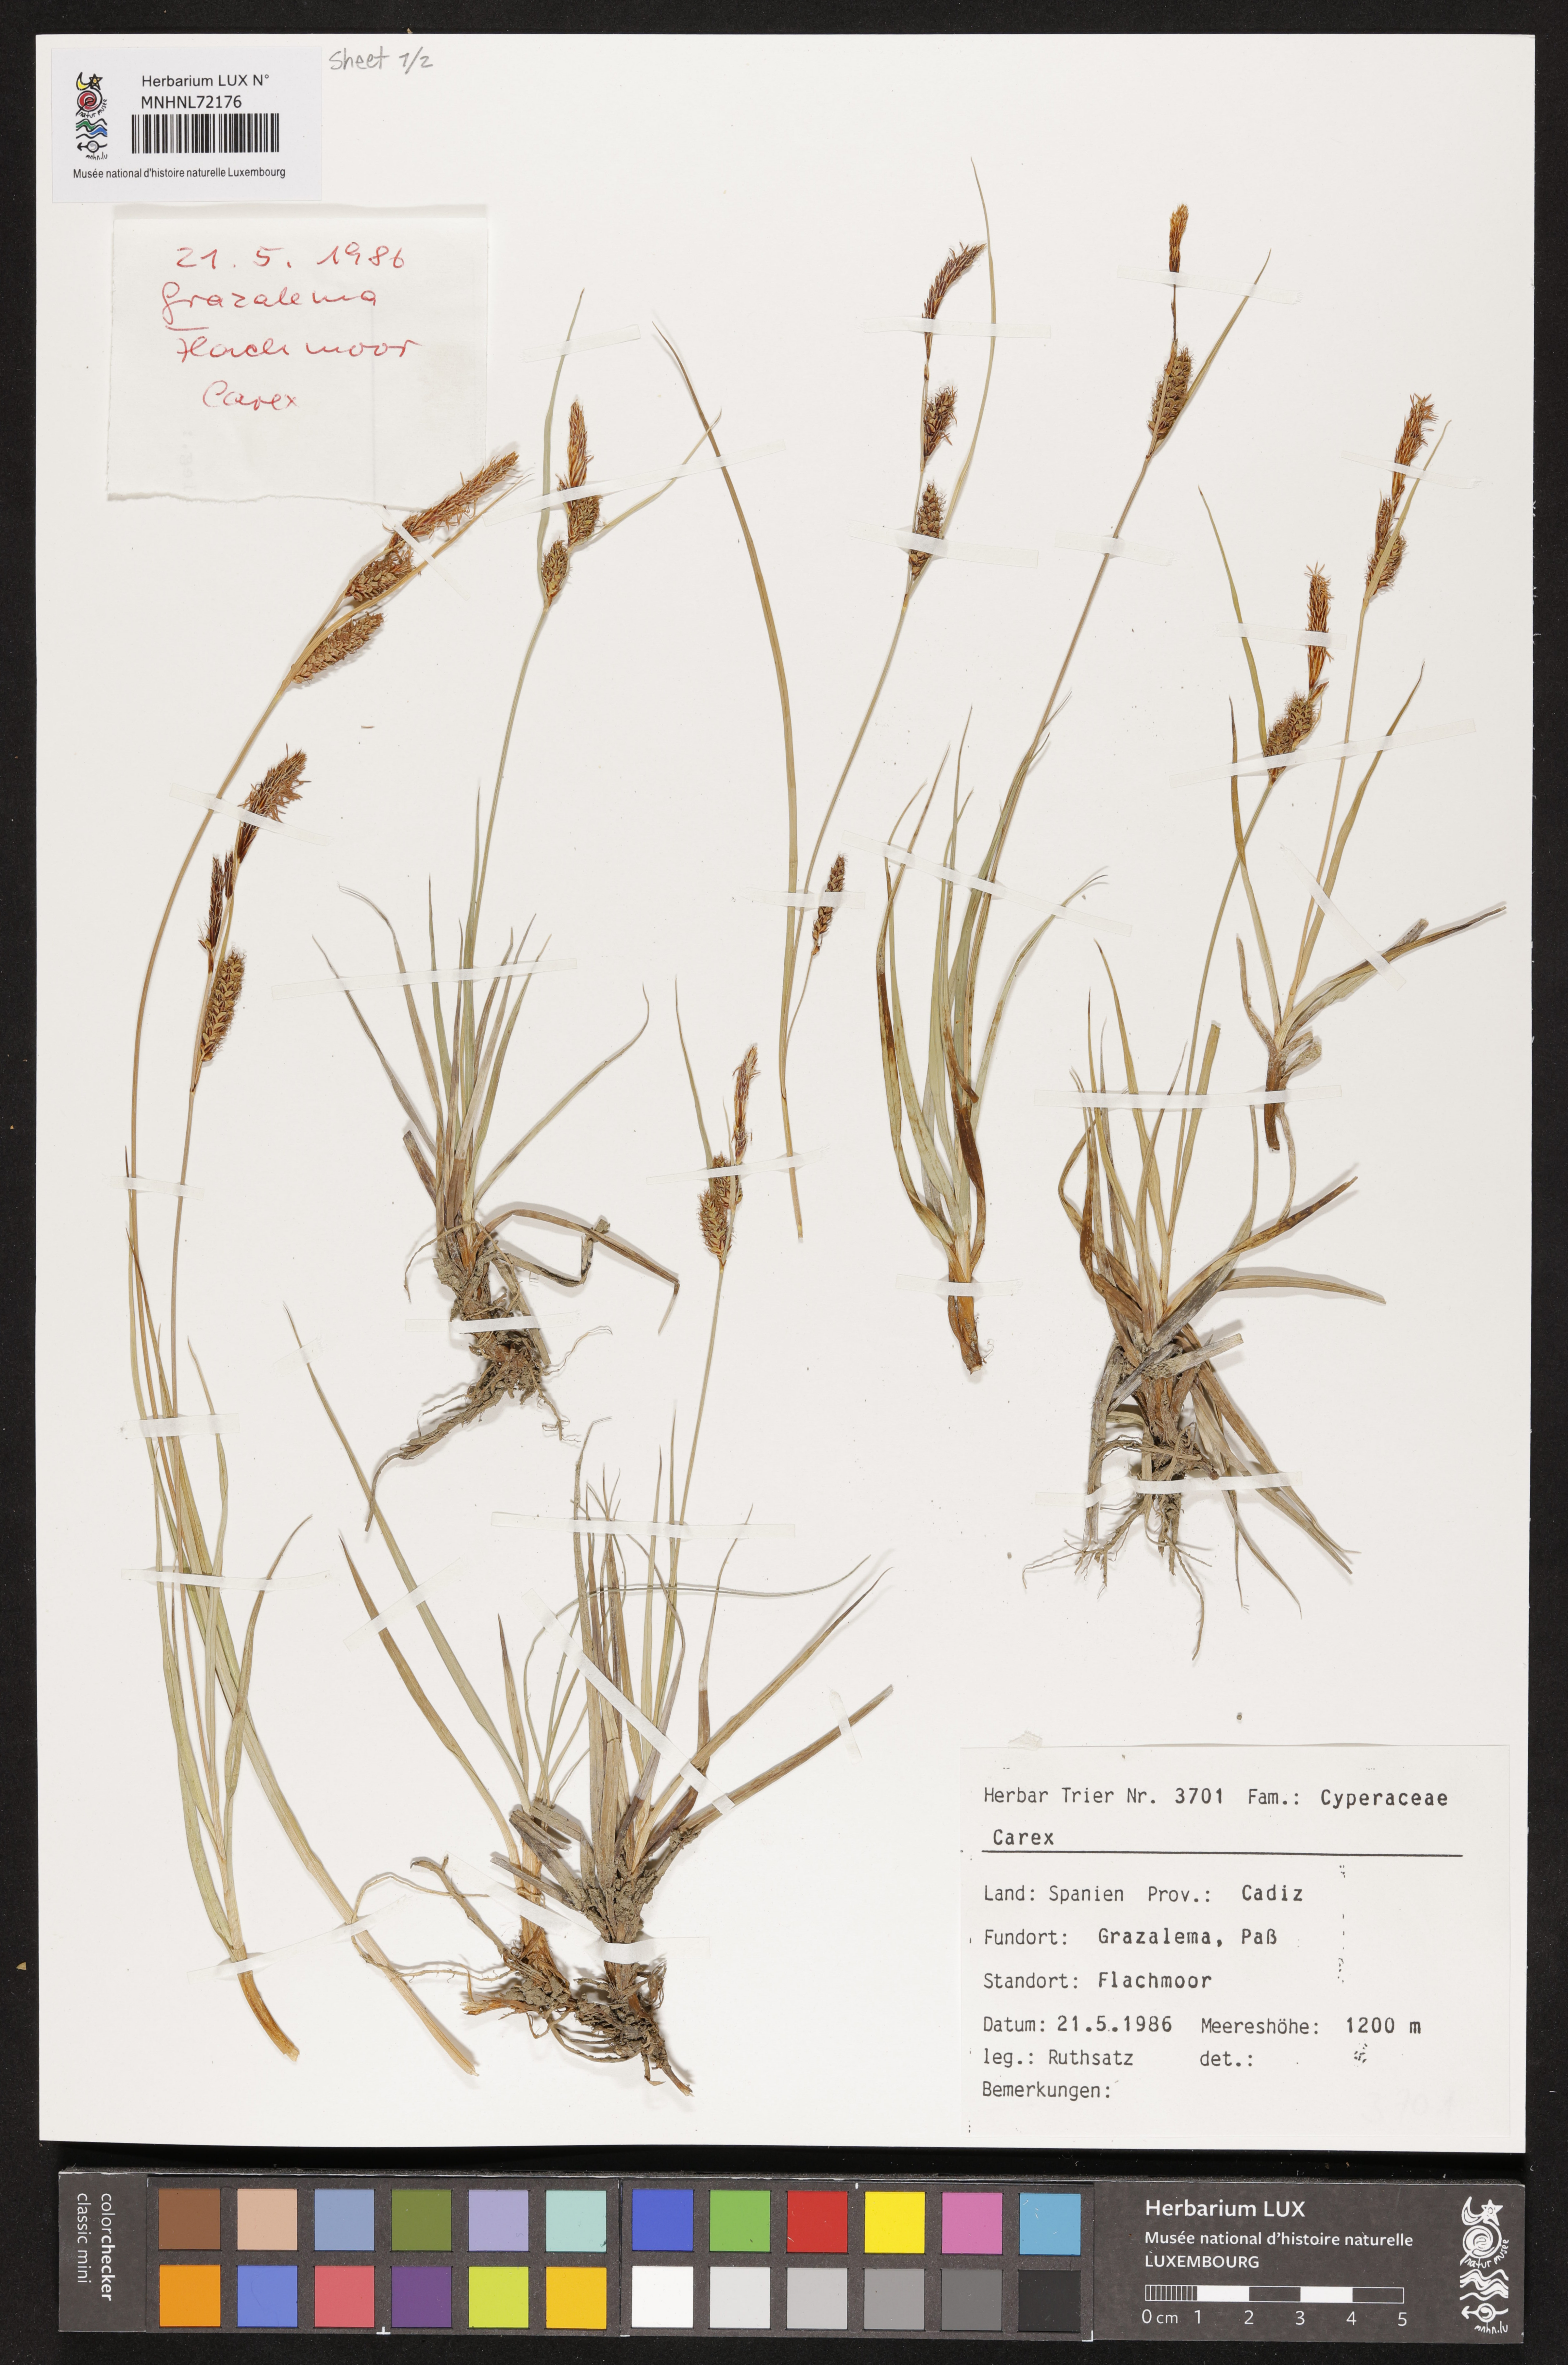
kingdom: Plantae
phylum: Tracheophyta
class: Liliopsida
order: Poales
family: Cyperaceae
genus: Carex
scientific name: Carex
